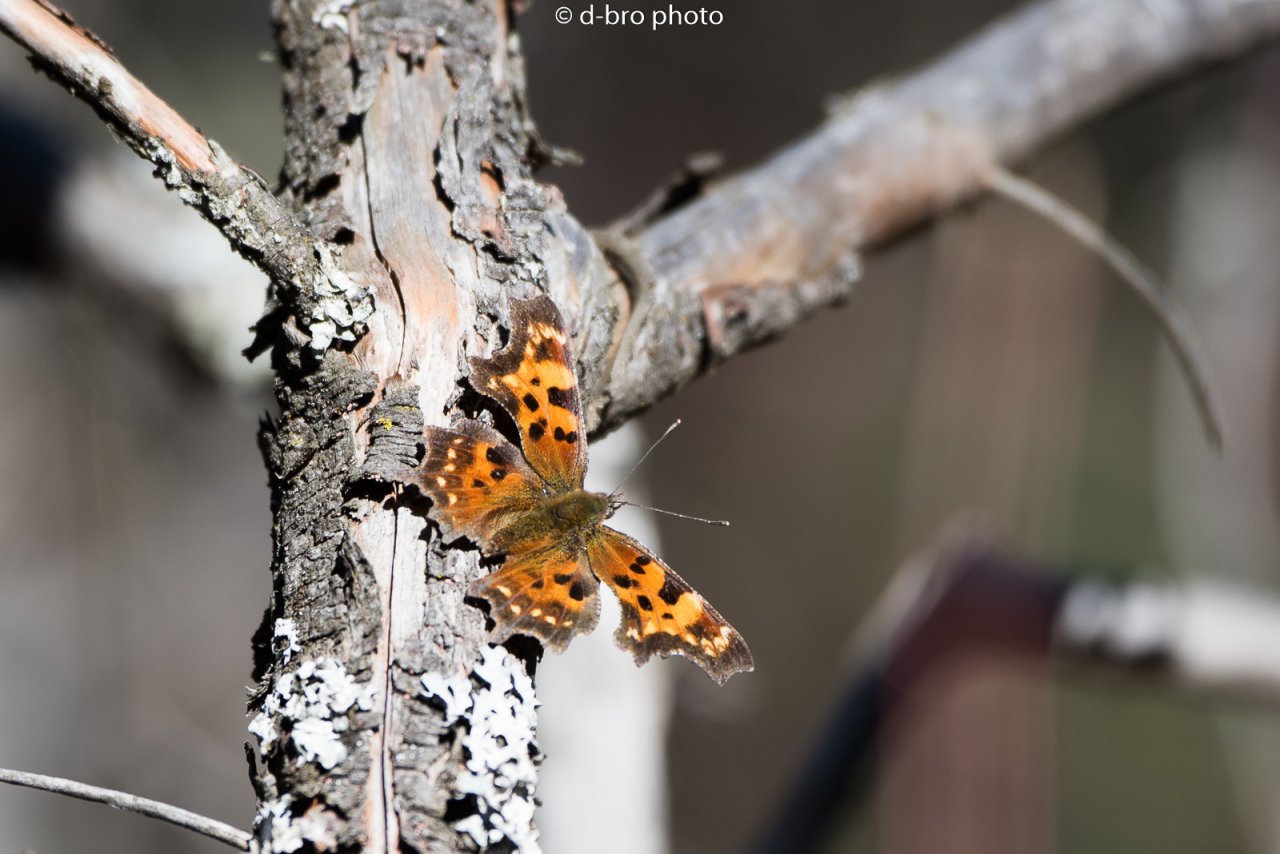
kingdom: Animalia
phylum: Arthropoda
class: Insecta
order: Lepidoptera
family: Nymphalidae
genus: Polygonia
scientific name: Polygonia faunus
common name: Green Comma
